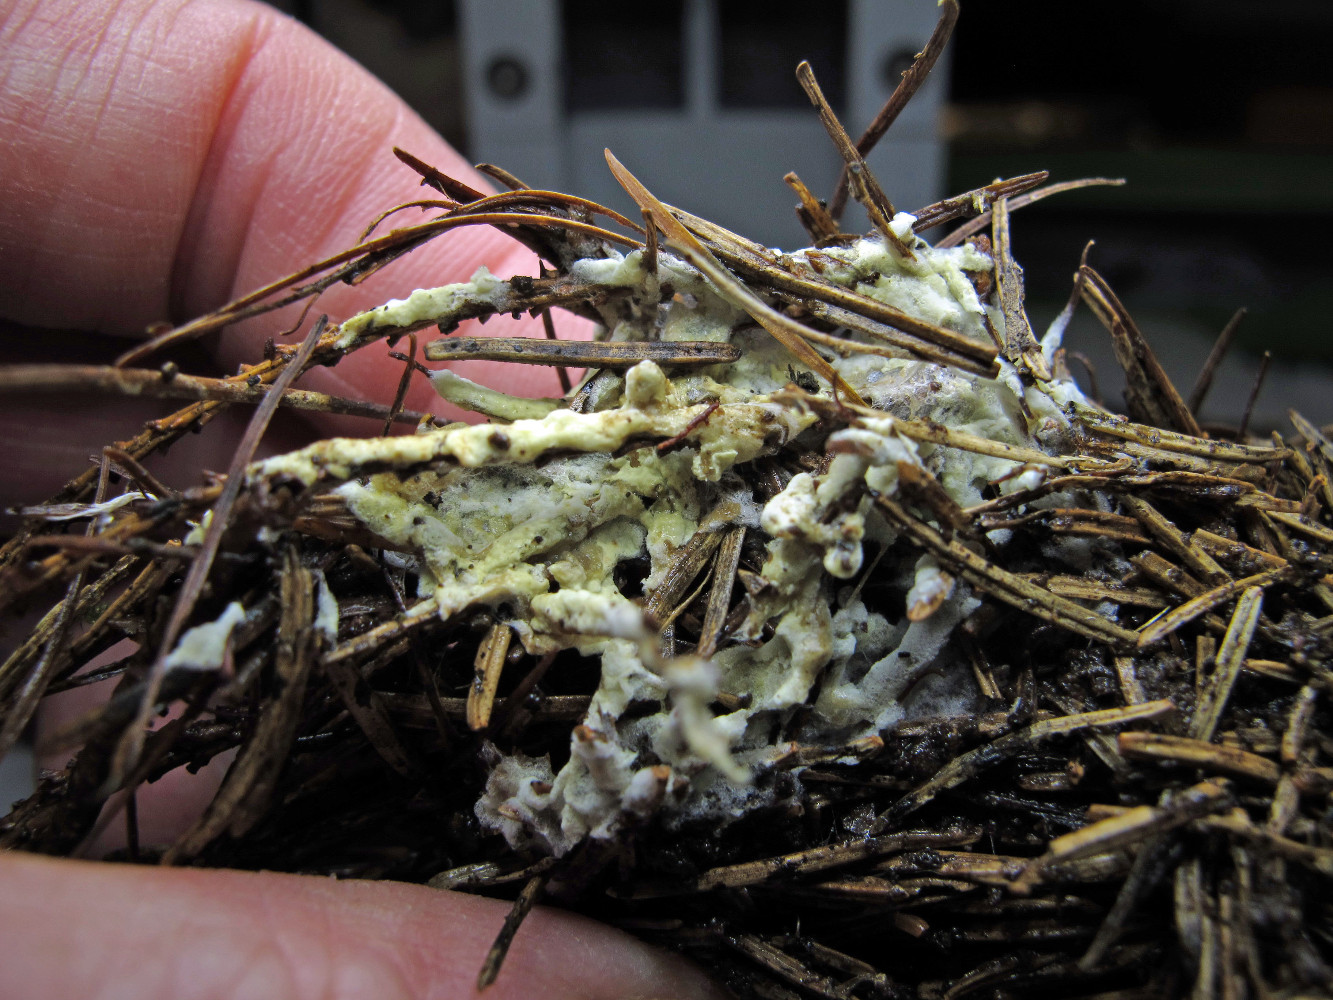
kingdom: Fungi
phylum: Basidiomycota
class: Agaricomycetes
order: Thelephorales
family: Thelephoraceae
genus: Tomentellopsis
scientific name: Tomentellopsis echinospora
